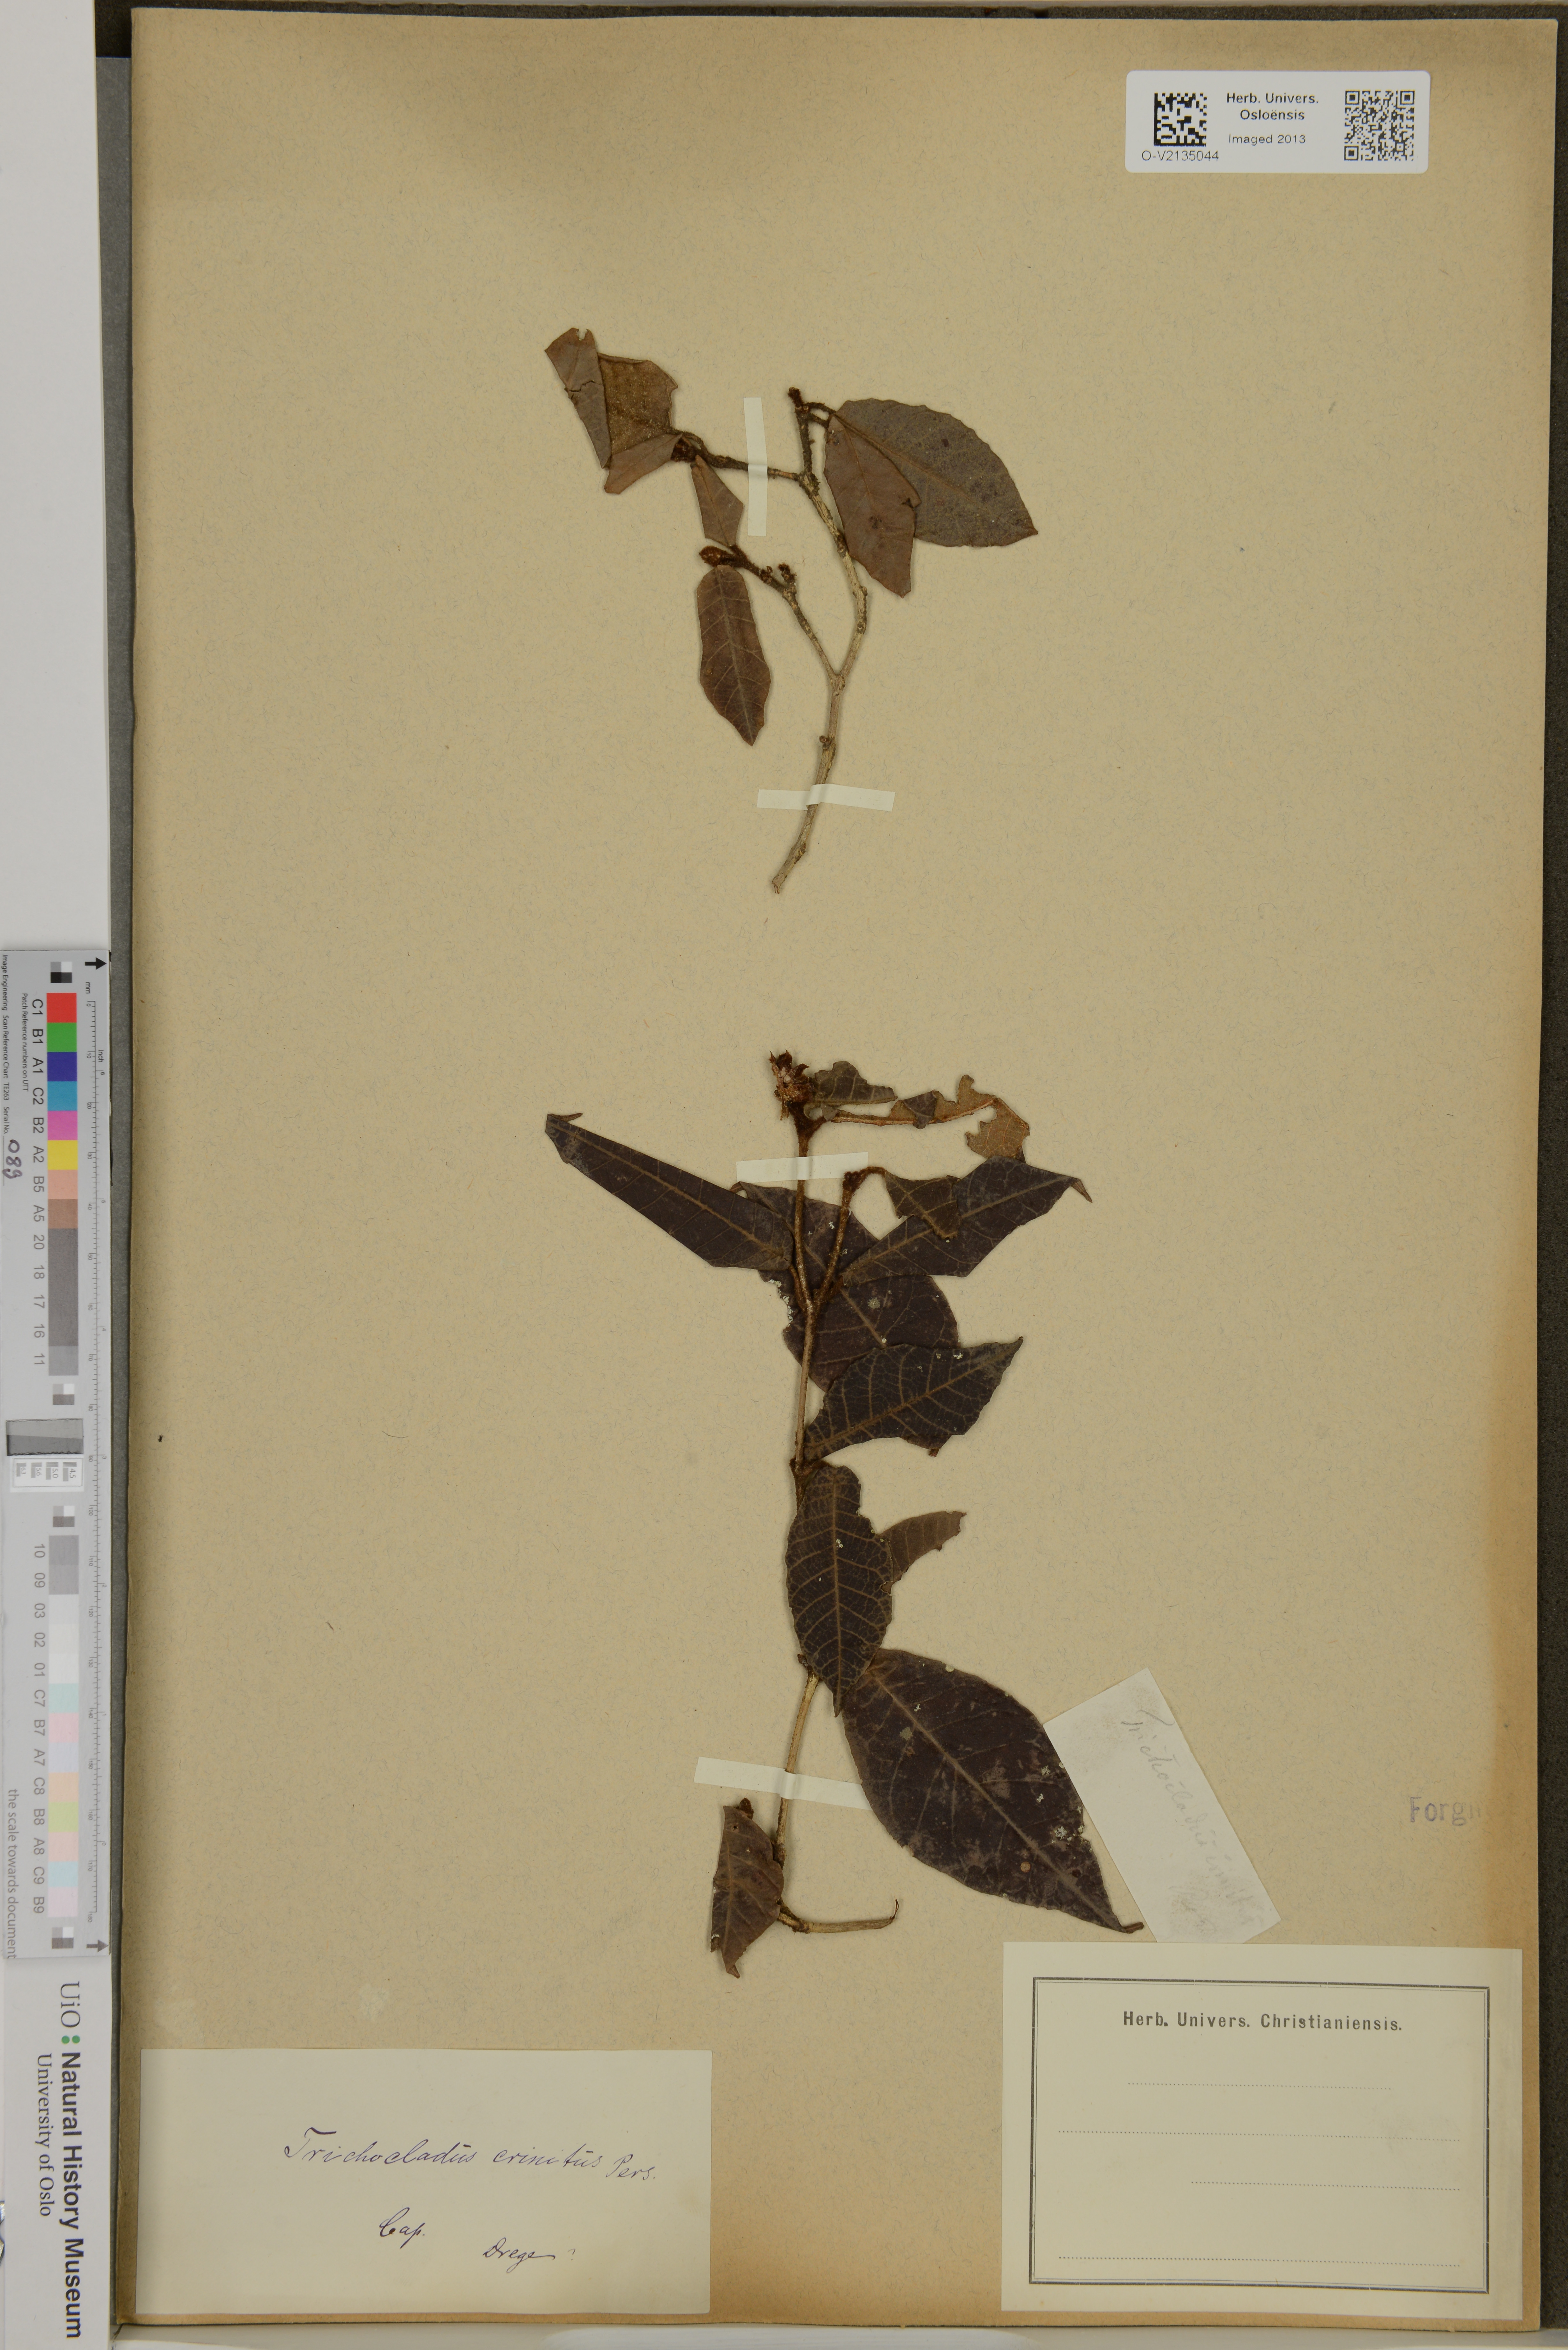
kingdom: Plantae
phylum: Tracheophyta
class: Magnoliopsida
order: Saxifragales
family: Hamamelidaceae
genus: Trichocladus
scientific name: Trichocladus crinitus
